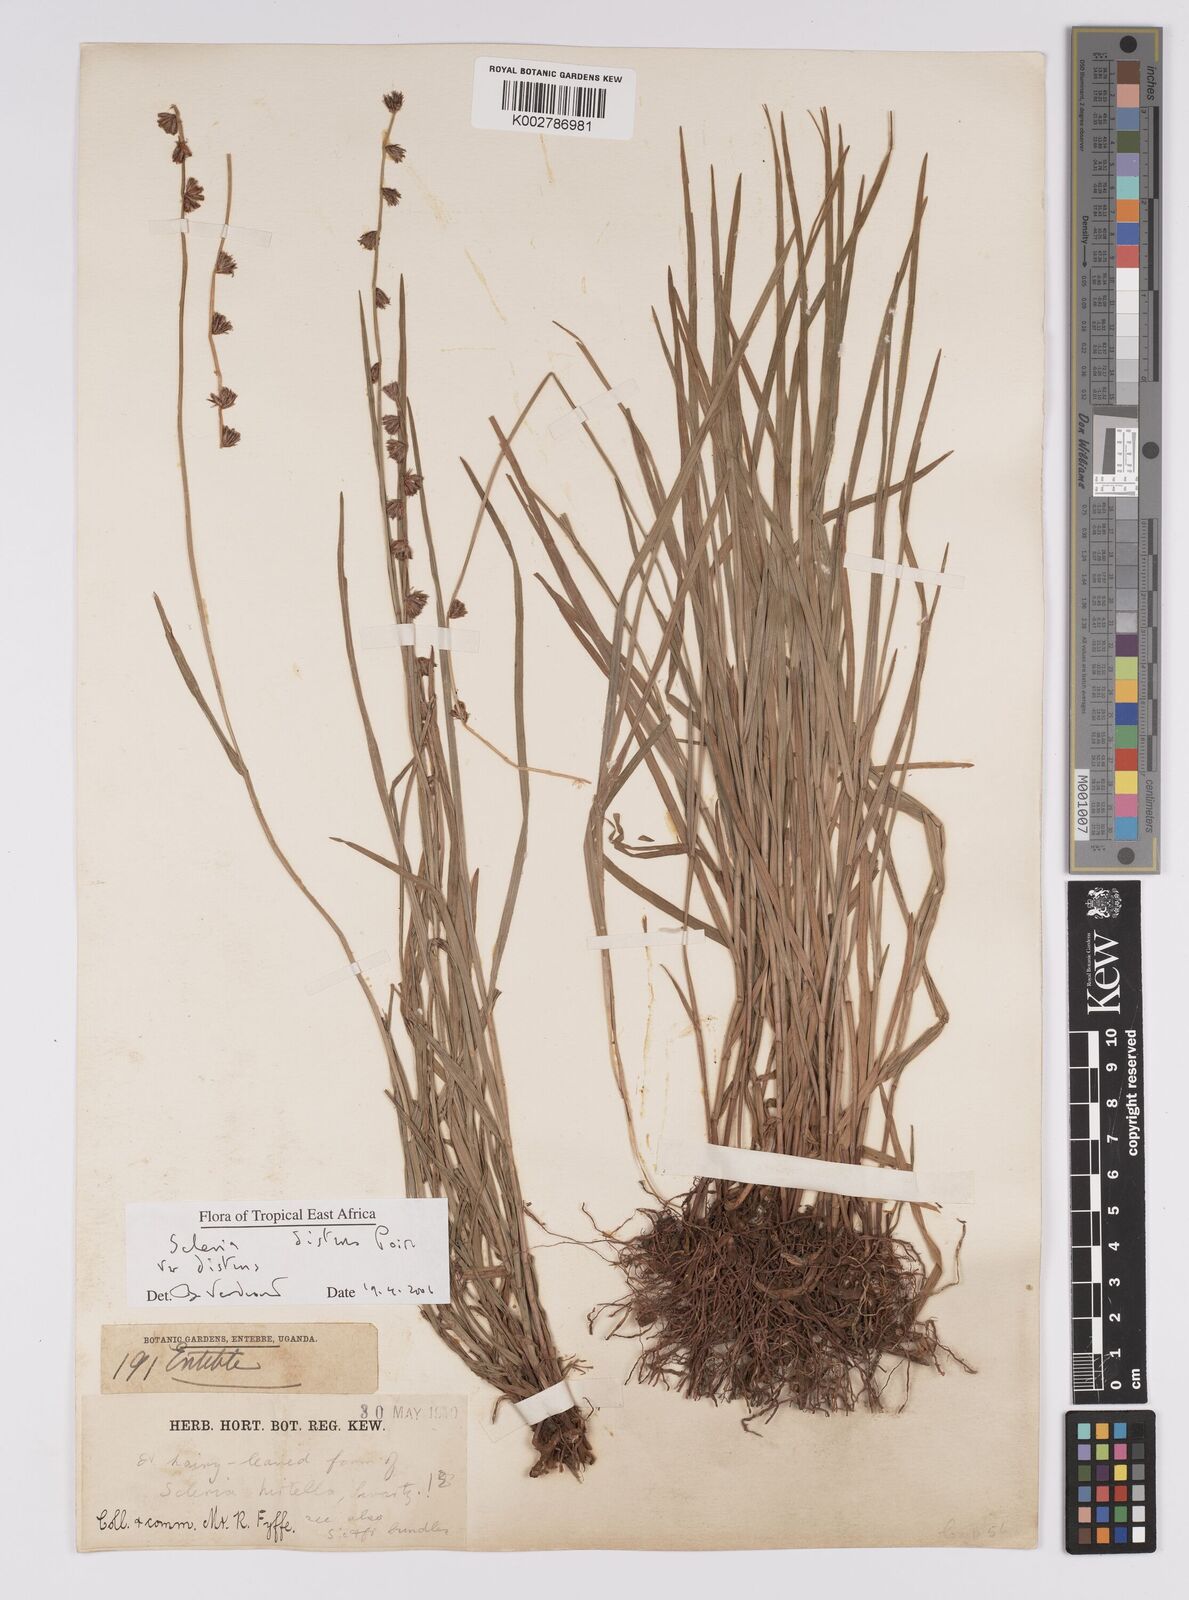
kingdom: Plantae
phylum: Tracheophyta
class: Liliopsida
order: Poales
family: Cyperaceae
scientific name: Cyperaceae
